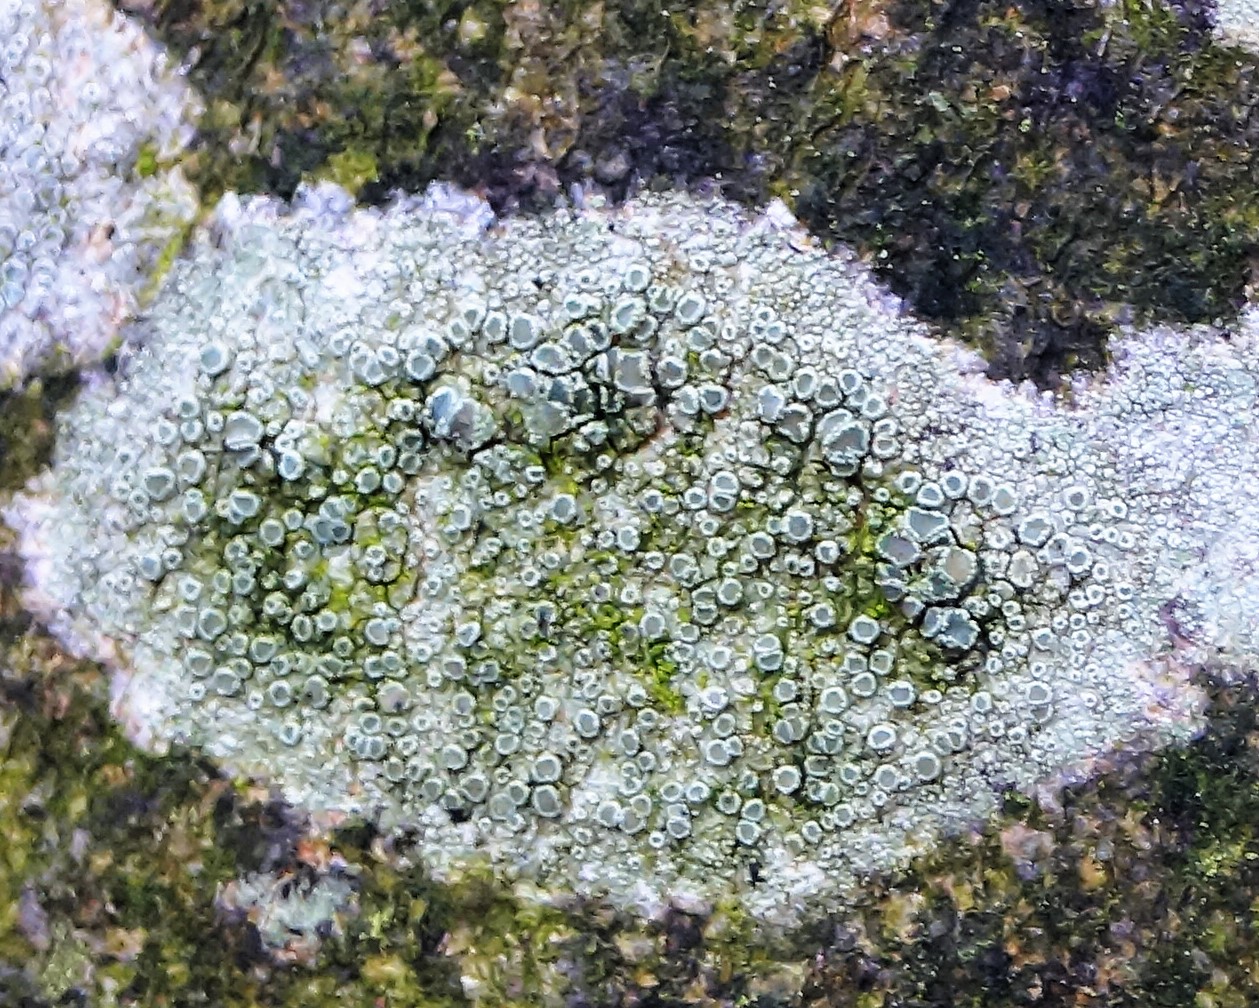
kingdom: Fungi
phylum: Ascomycota
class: Lecanoromycetes
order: Lecanorales
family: Lecanoraceae
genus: Lecanora
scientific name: Lecanora chlarotera
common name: brun kantskivelav
